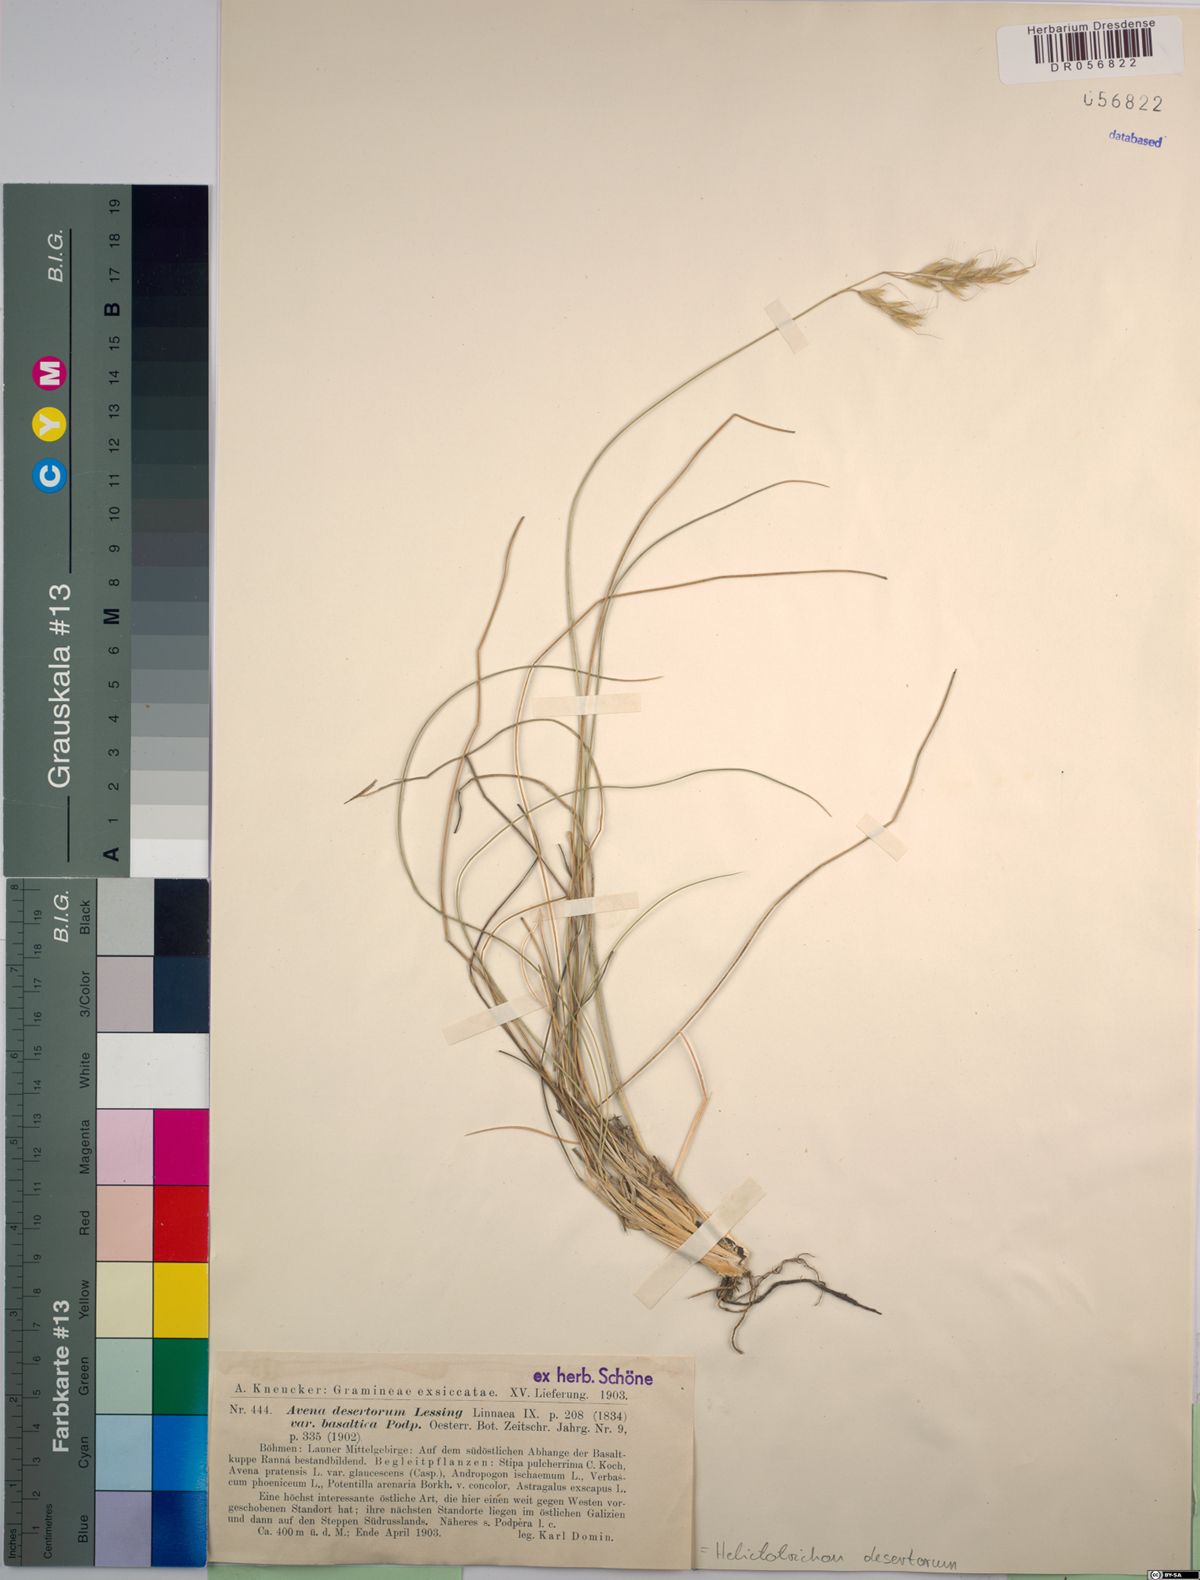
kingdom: Plantae
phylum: Tracheophyta
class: Liliopsida
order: Poales
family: Poaceae
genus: Helictotrichon
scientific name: Helictotrichon desertorum
